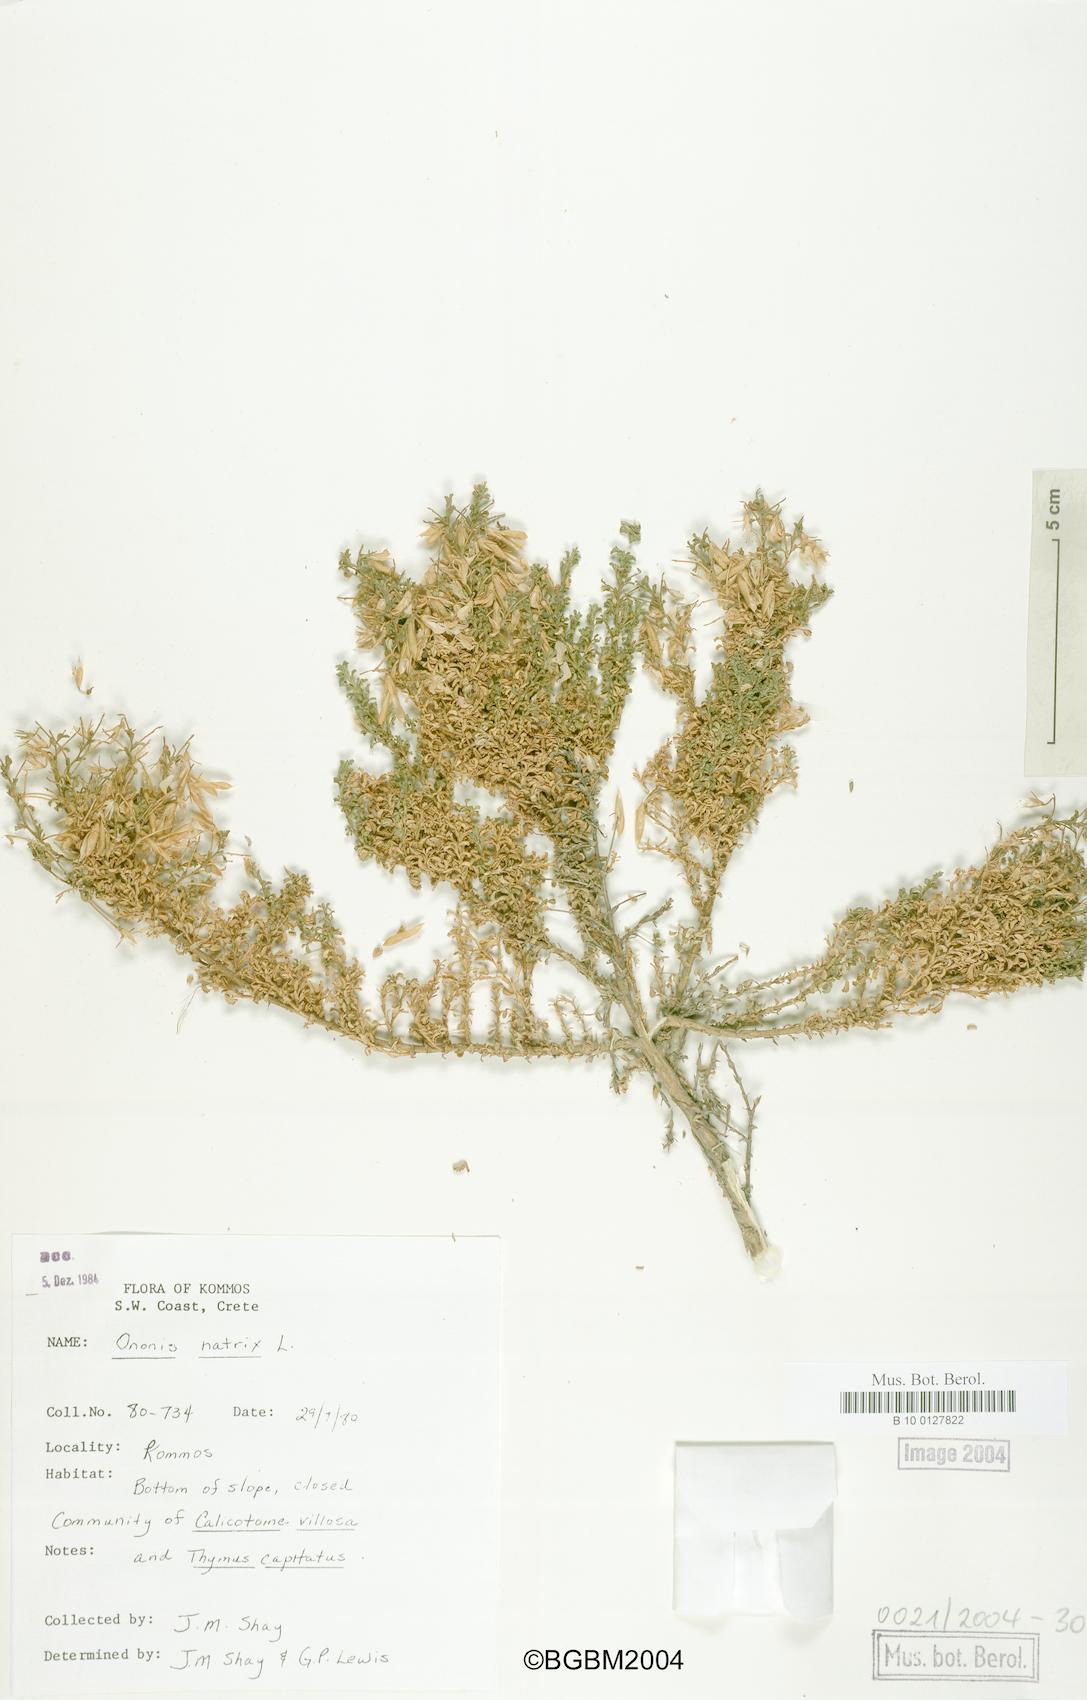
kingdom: Plantae
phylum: Tracheophyta
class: Magnoliopsida
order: Fabales
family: Fabaceae
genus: Ononis
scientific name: Ononis natrix
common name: Yellow restharrow
